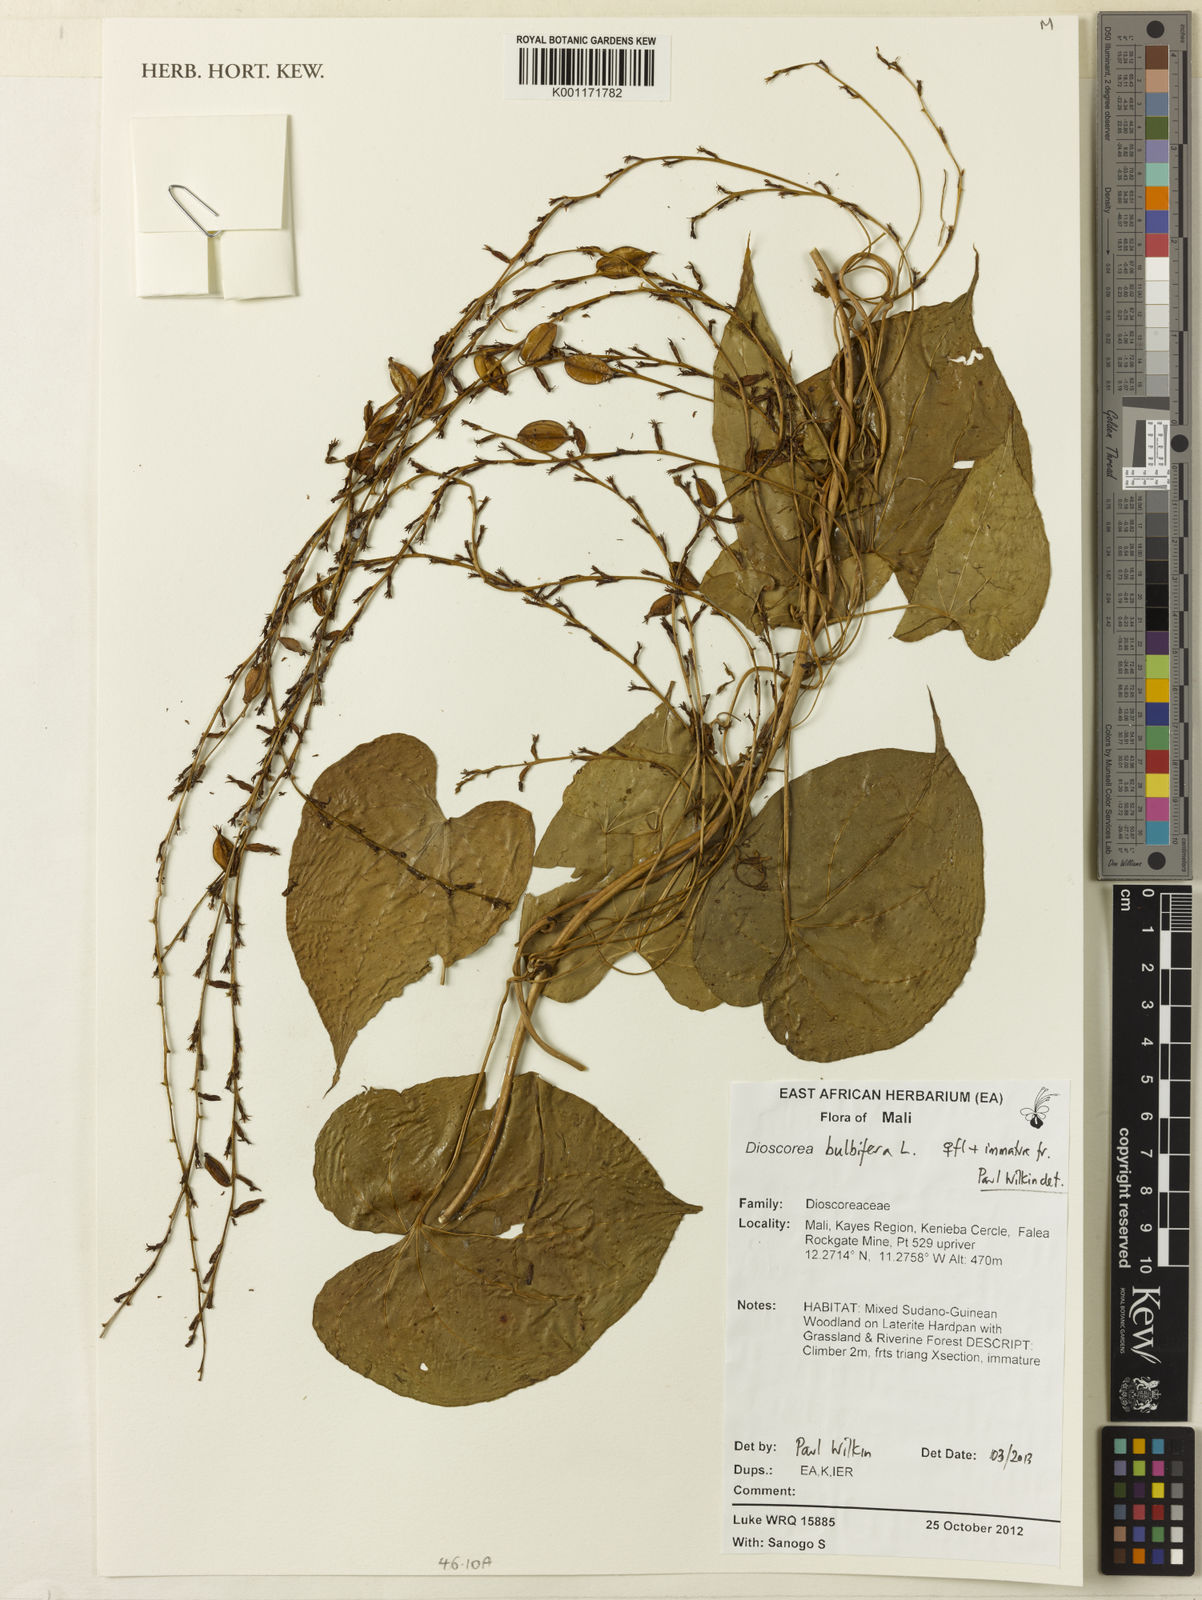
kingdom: Plantae
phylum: Tracheophyta
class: Liliopsida
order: Dioscoreales
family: Dioscoreaceae
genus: Dioscorea
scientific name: Dioscorea bulbifera
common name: Air yam
